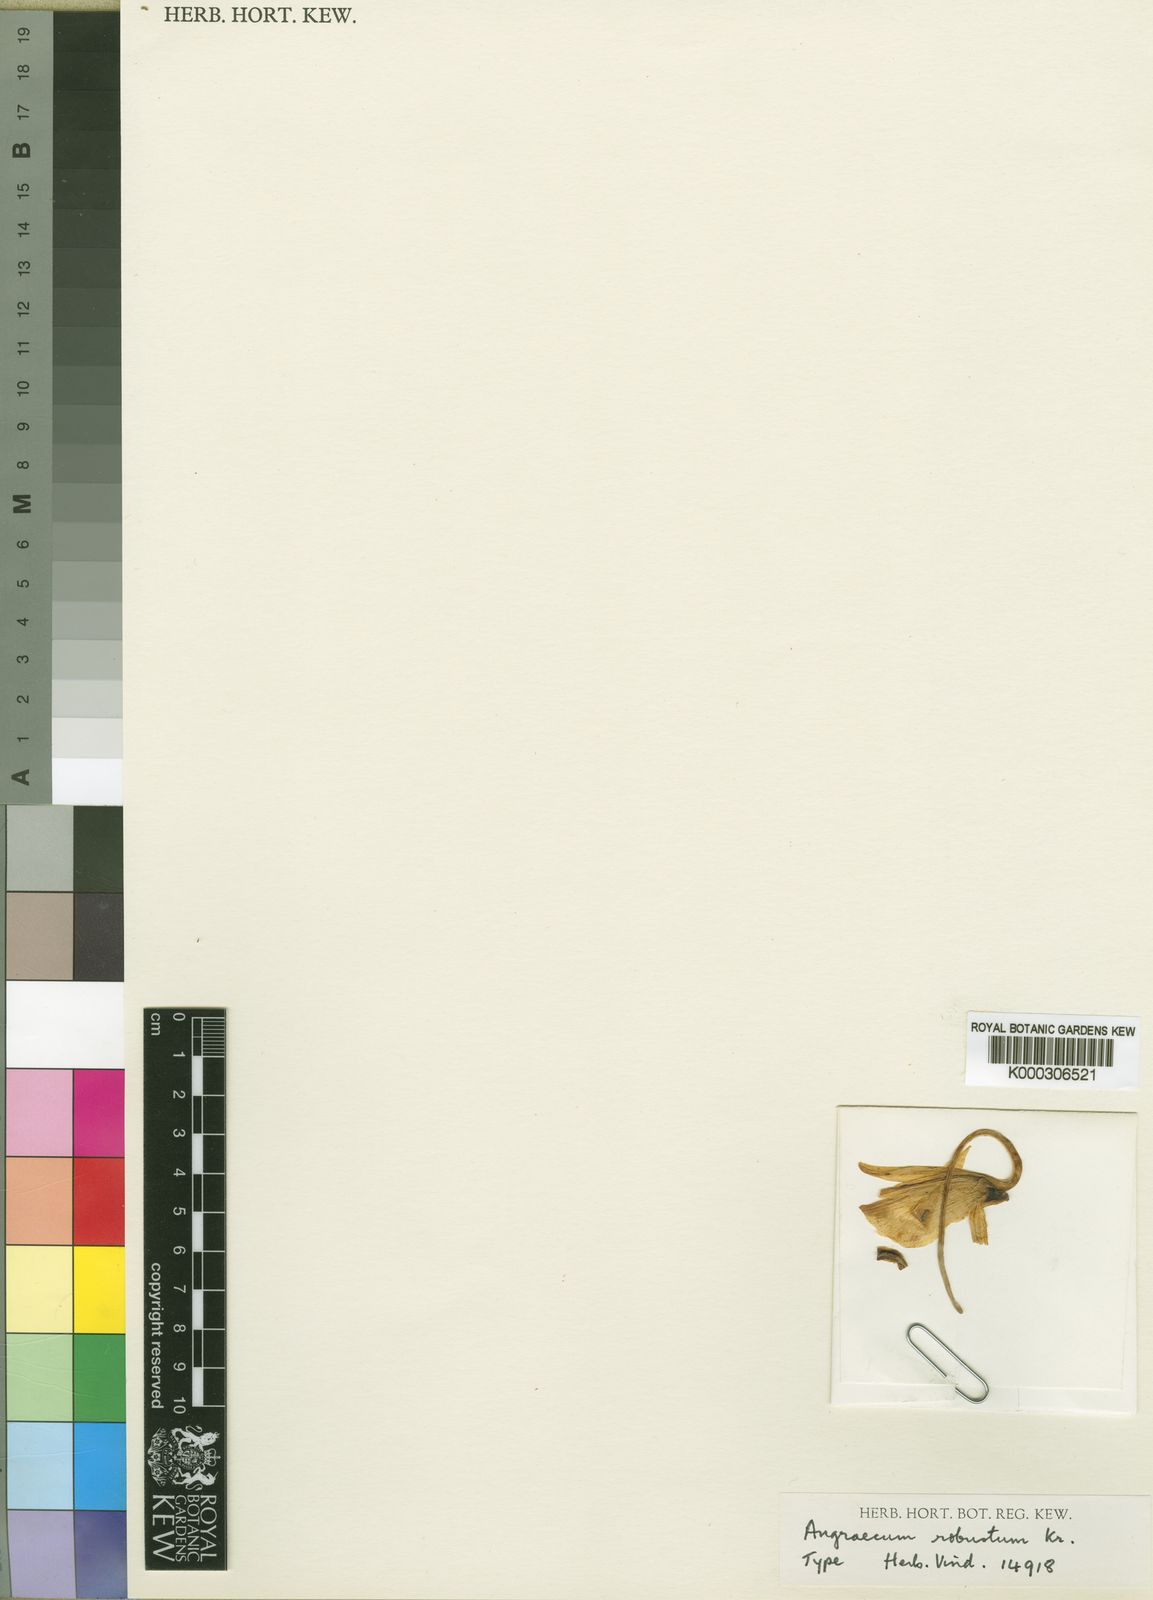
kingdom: Plantae
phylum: Tracheophyta
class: Liliopsida
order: Asparagales
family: Orchidaceae
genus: Angraecum
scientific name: Angraecum kranzlinianum
